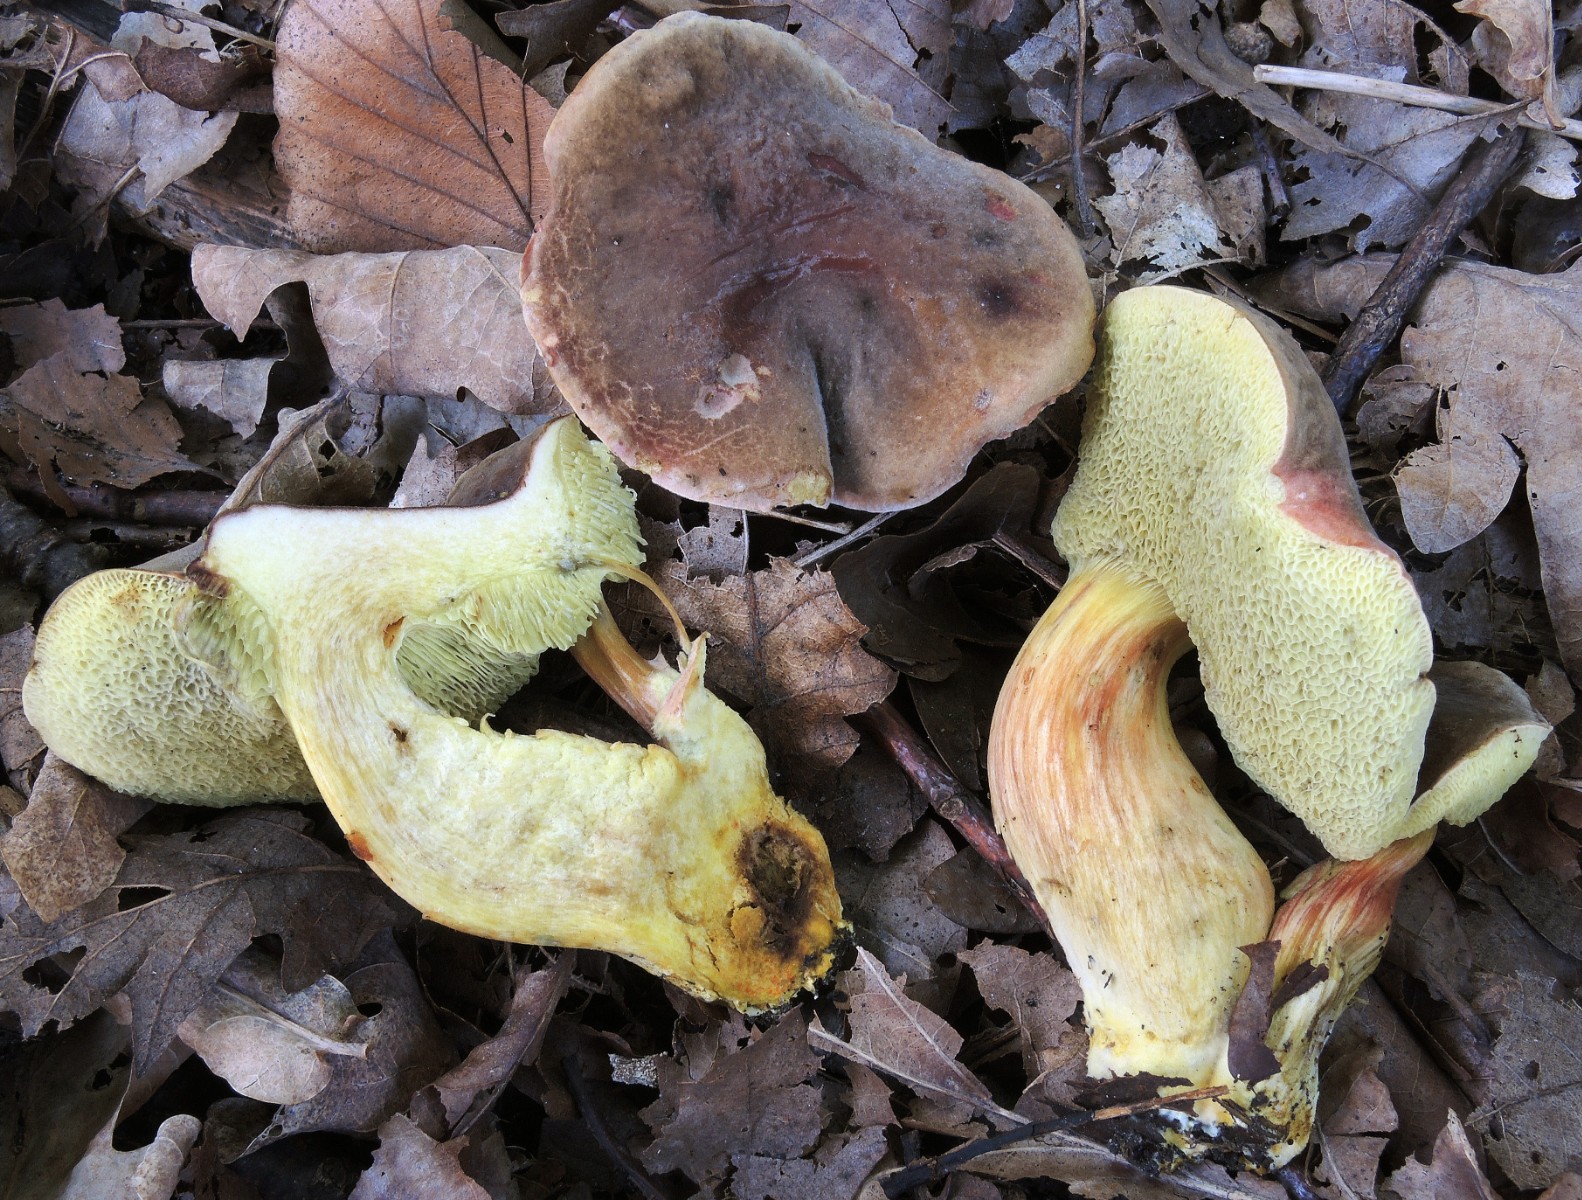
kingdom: Fungi
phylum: Basidiomycota
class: Agaricomycetes
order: Boletales
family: Boletaceae
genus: Hortiboletus
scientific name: Hortiboletus engelii
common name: fersken-rørhat
